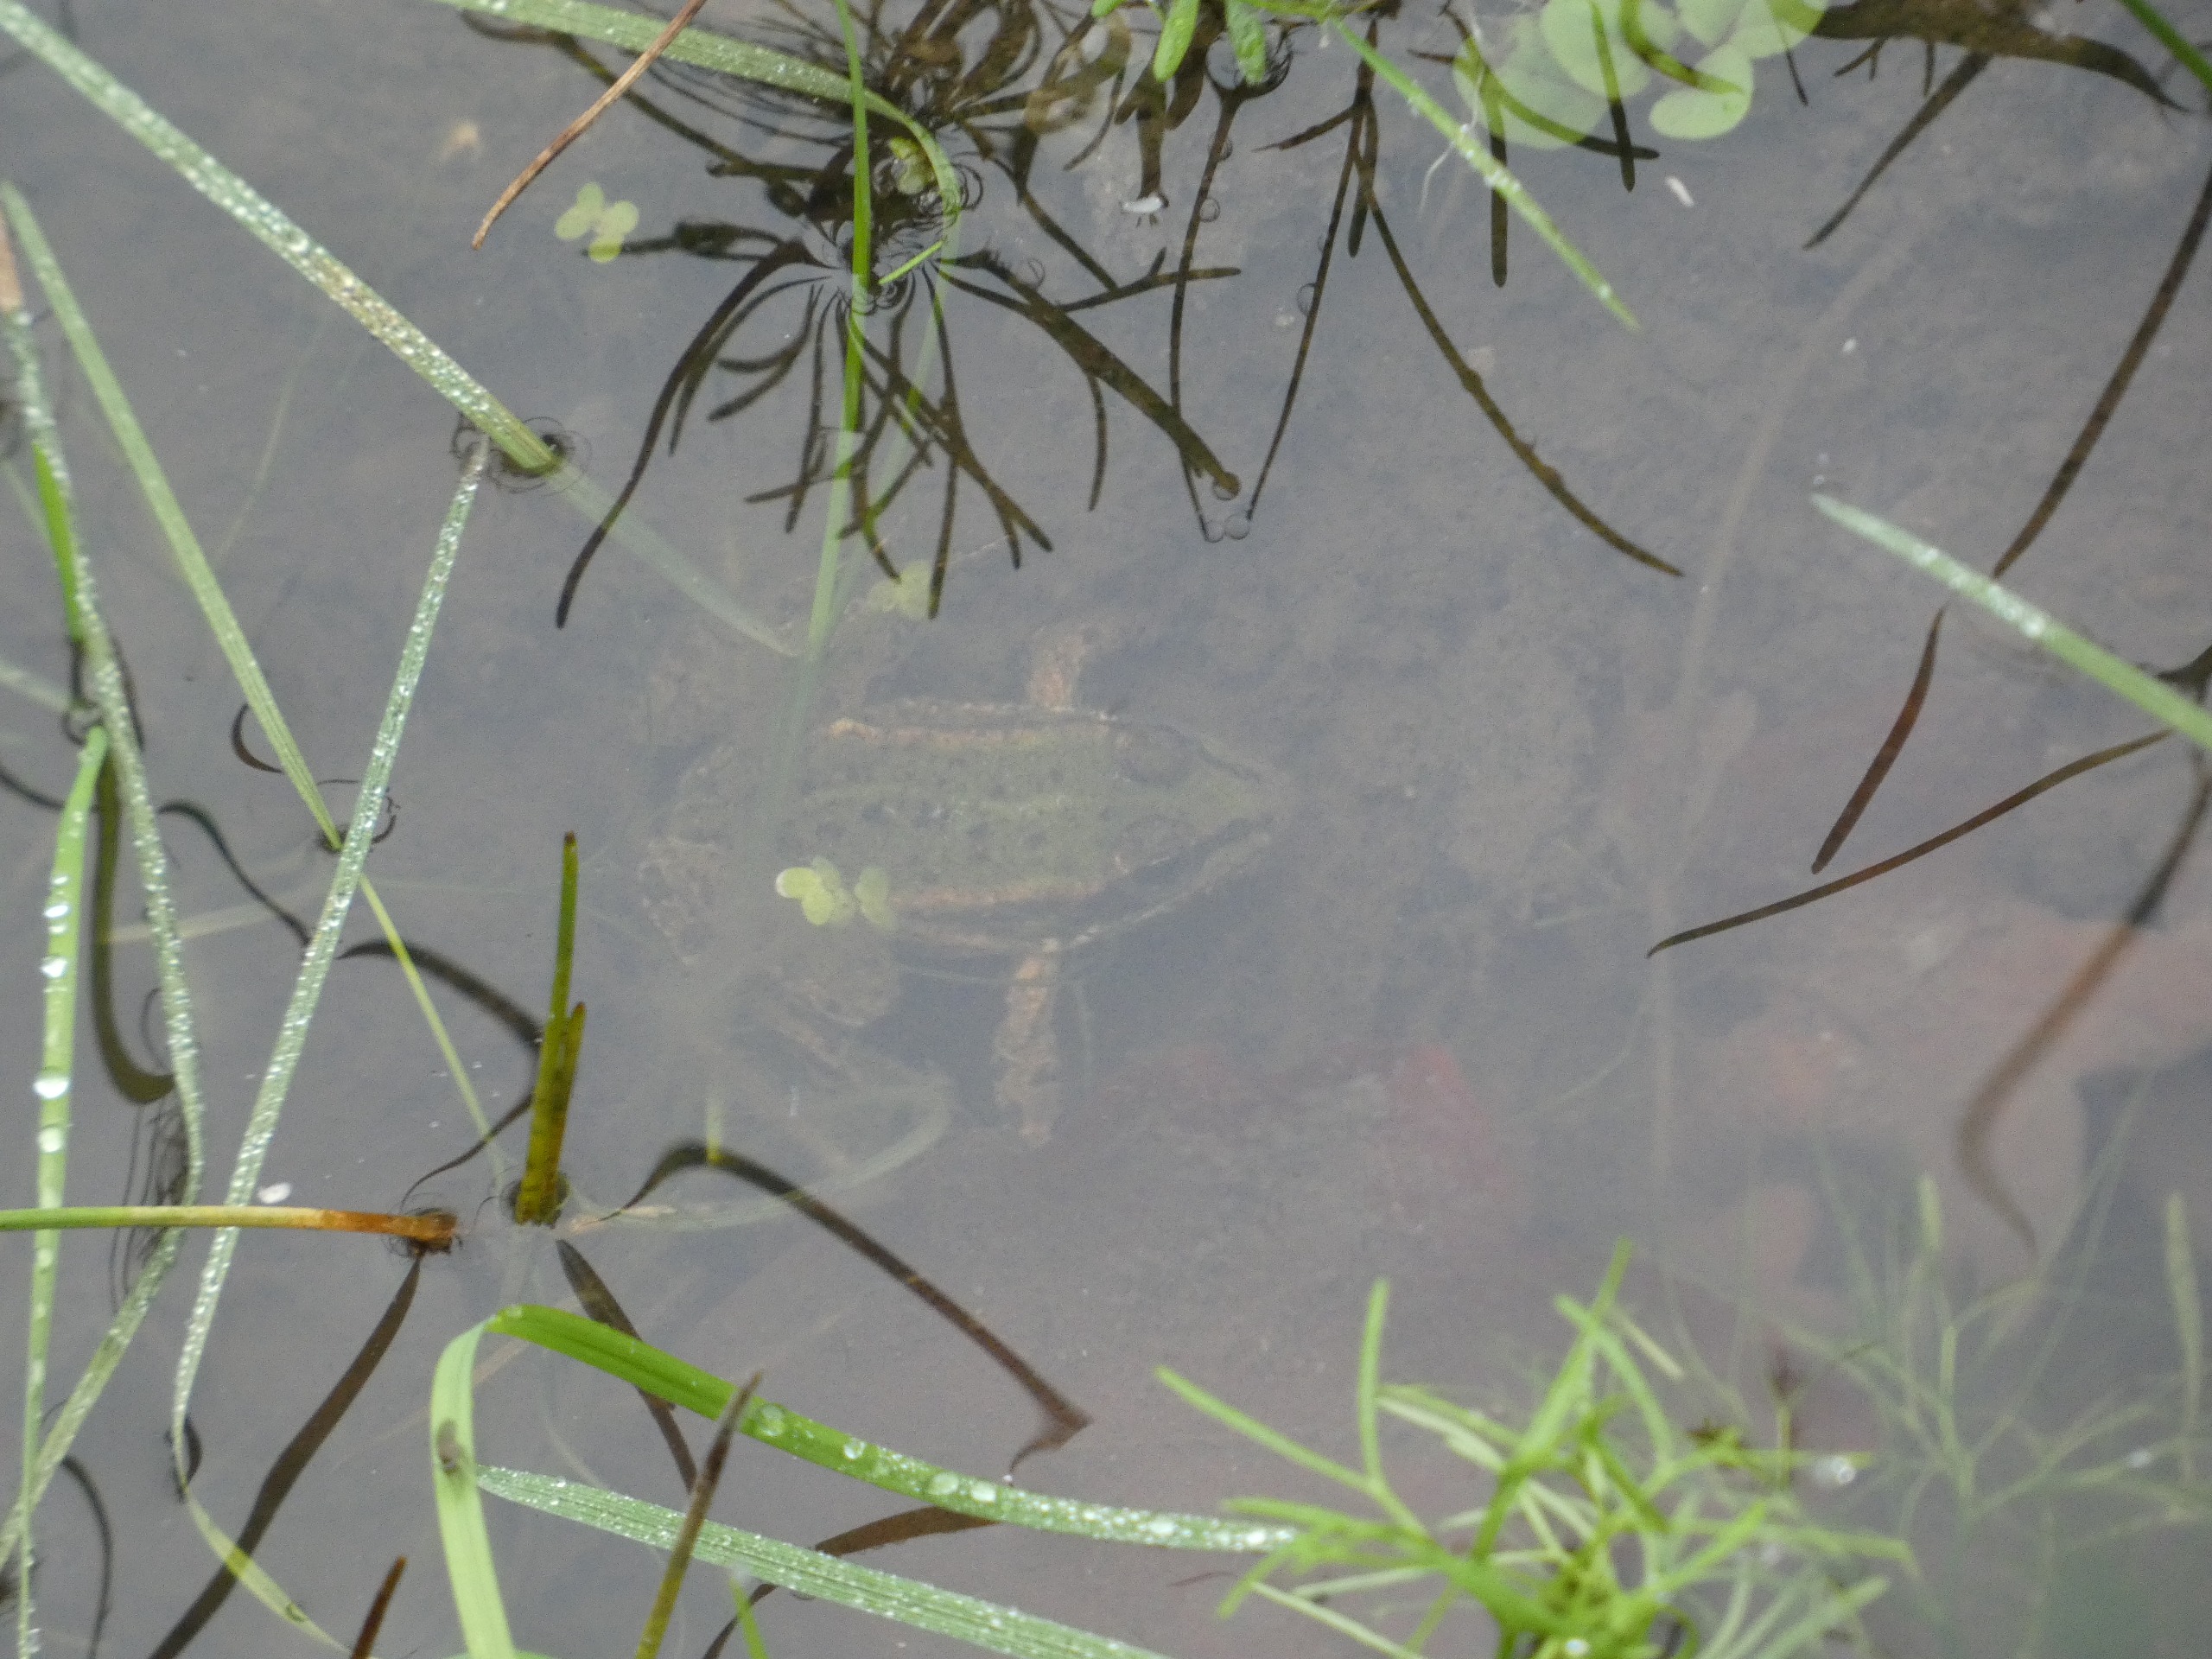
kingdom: Animalia
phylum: Chordata
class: Amphibia
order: Anura
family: Ranidae
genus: Pelophylax
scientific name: Pelophylax lessonae
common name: Grøn frø
